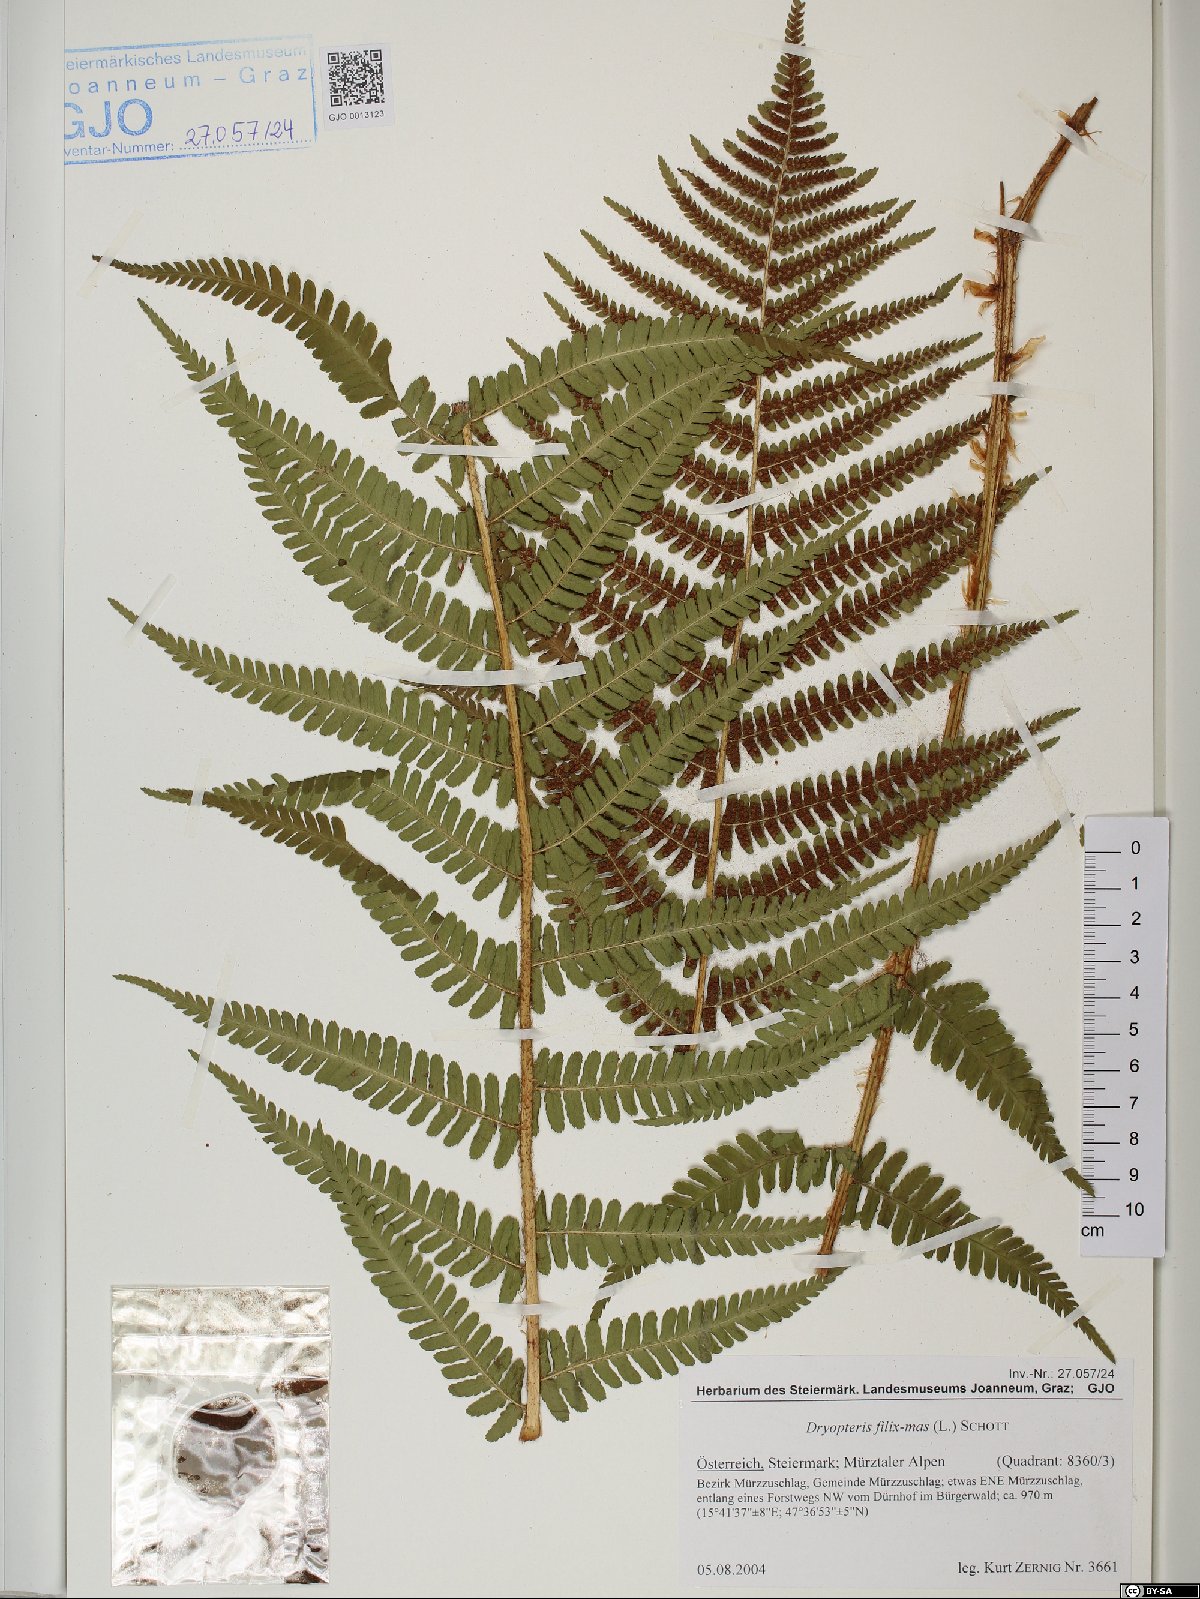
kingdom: Plantae
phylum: Tracheophyta
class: Polypodiopsida
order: Polypodiales
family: Dryopteridaceae
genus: Dryopteris
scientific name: Dryopteris filix-mas
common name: Male fern
